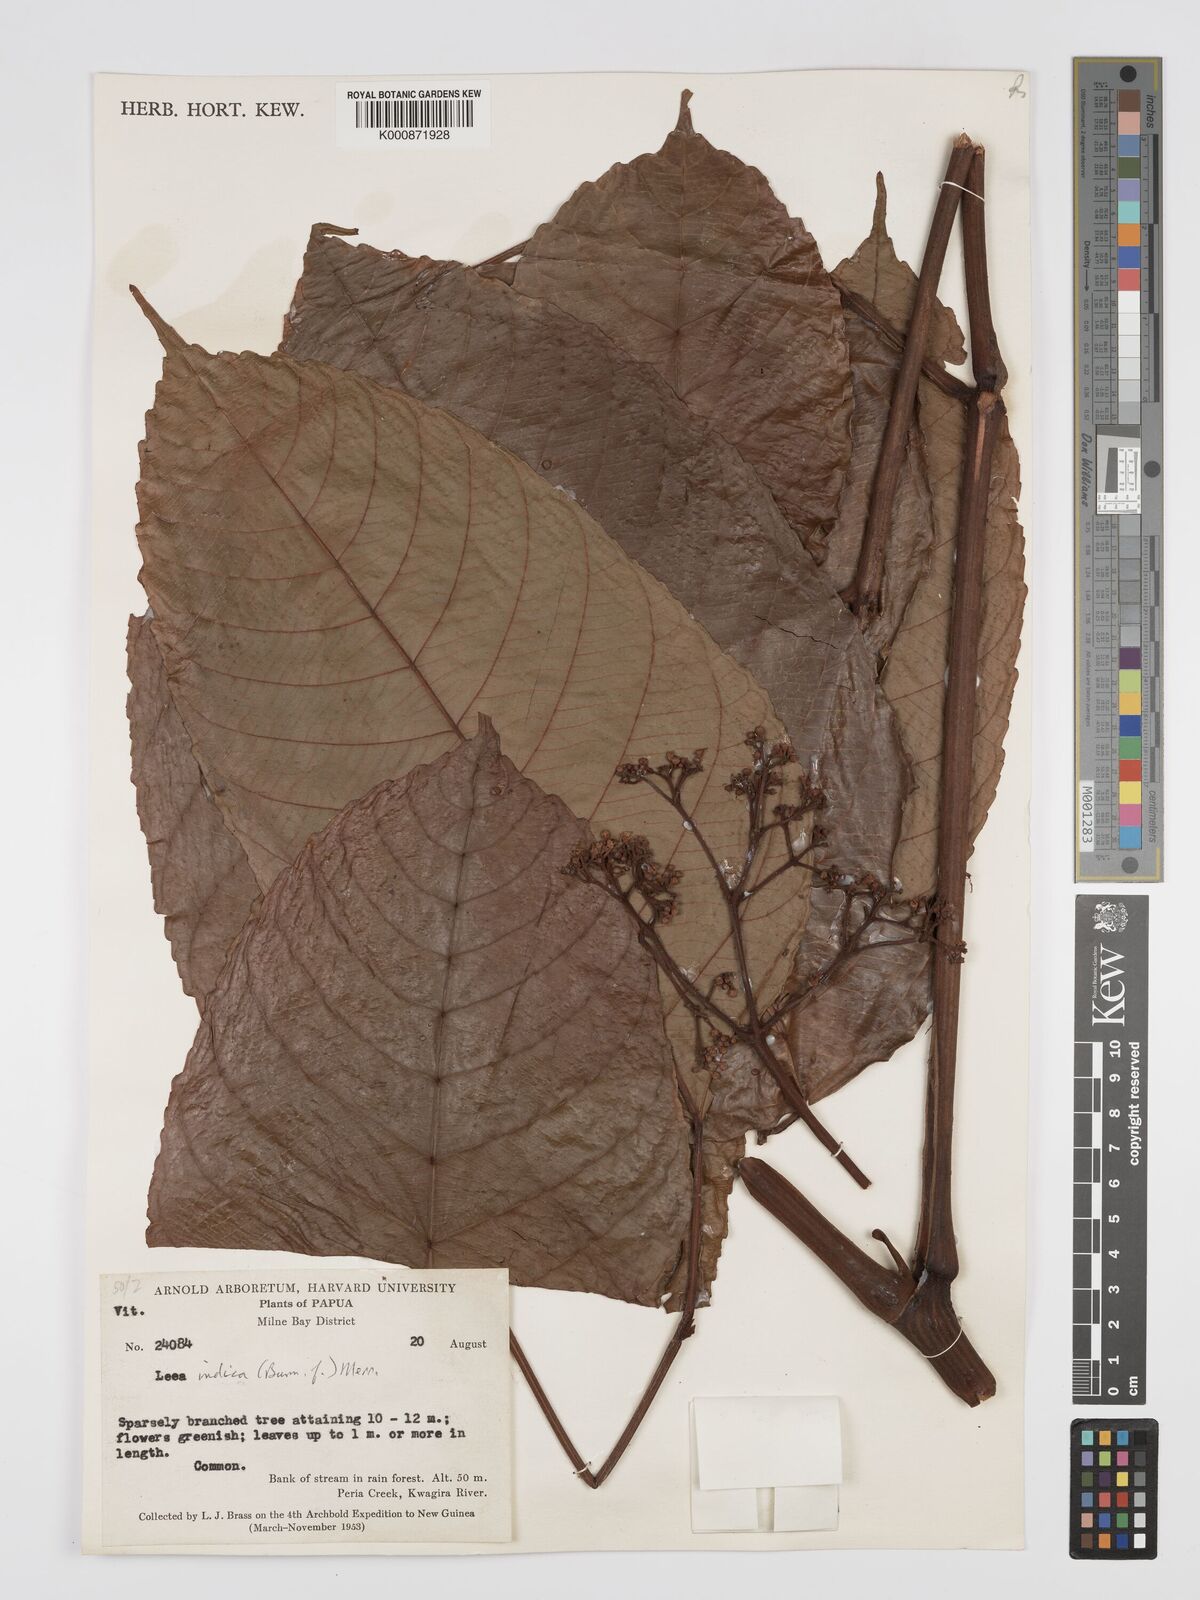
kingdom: Plantae
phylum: Tracheophyta
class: Magnoliopsida
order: Vitales
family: Vitaceae
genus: Leea
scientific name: Leea indica
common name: Bandicoot-berry
